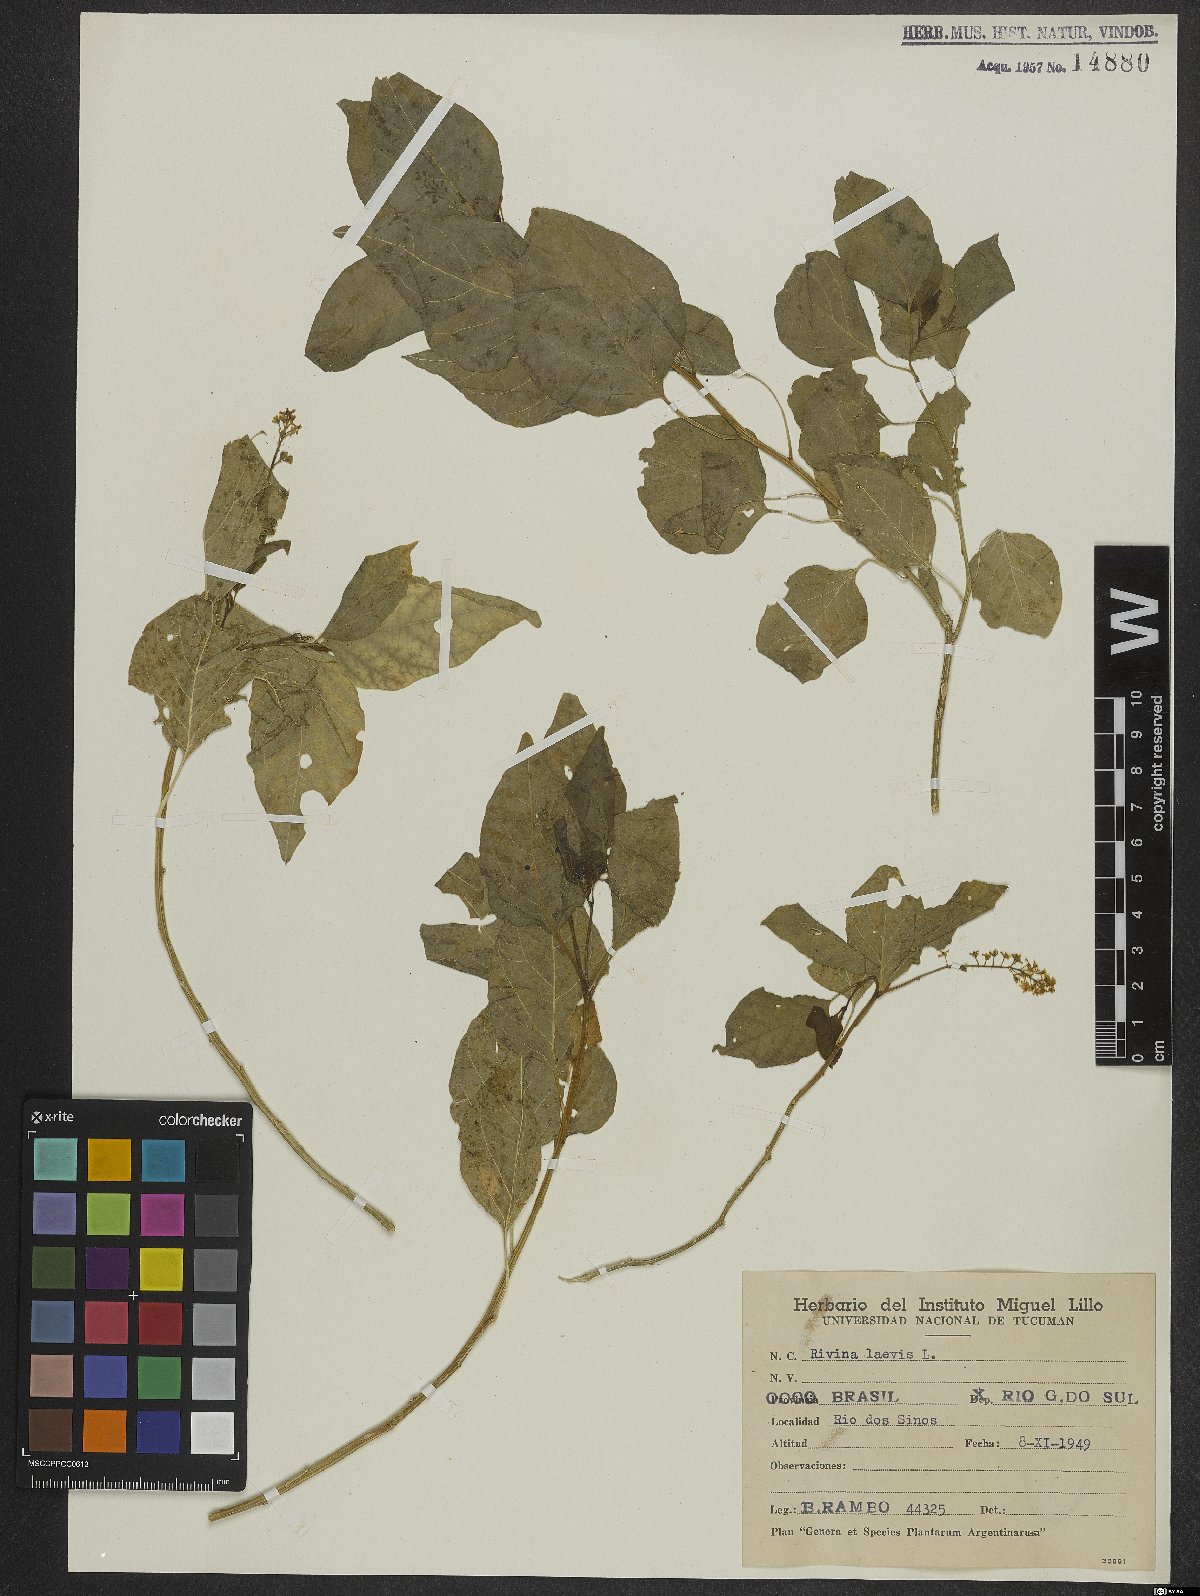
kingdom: Plantae
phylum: Tracheophyta
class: Magnoliopsida
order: Caryophyllales
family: Phytolaccaceae
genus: Rivina
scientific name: Rivina humilis
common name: Rougeplant
